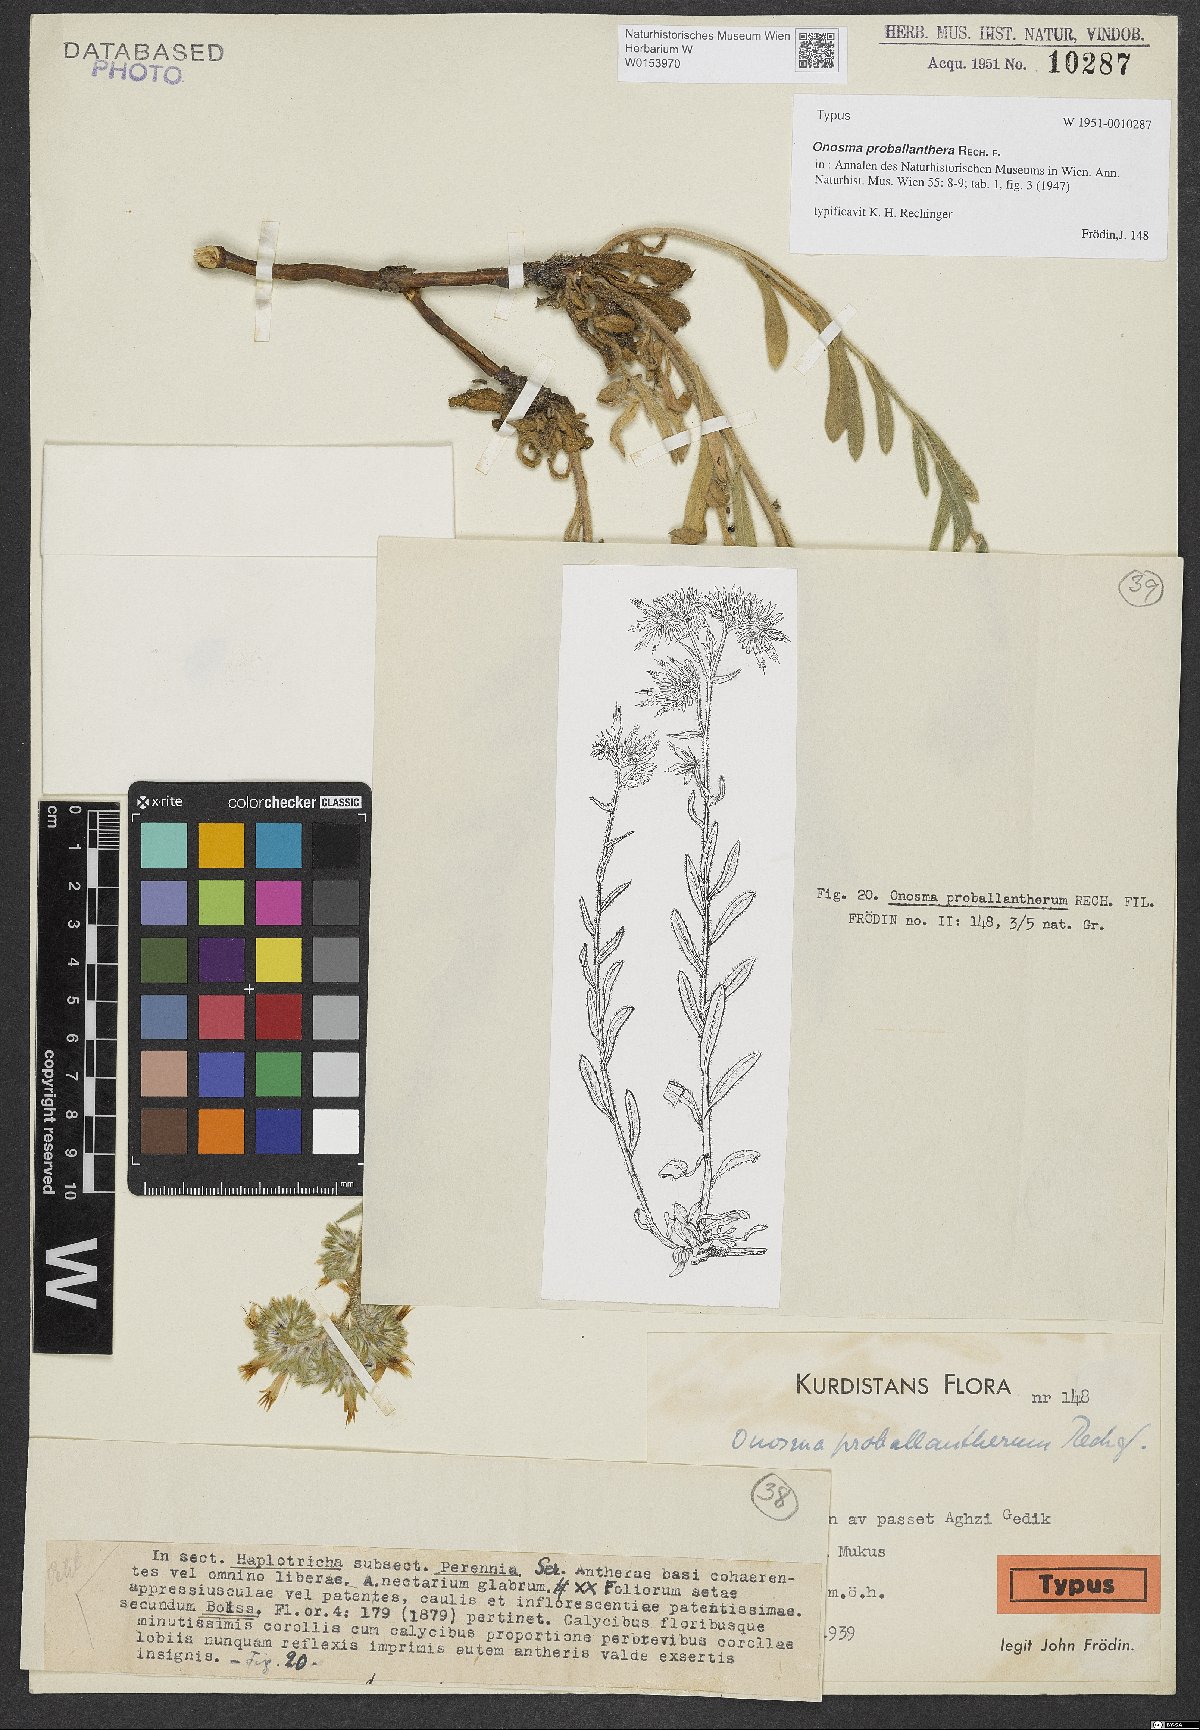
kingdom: Plantae
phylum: Tracheophyta
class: Magnoliopsida
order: Boraginales
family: Boraginaceae
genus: Onosma
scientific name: Onosma proballanthera
